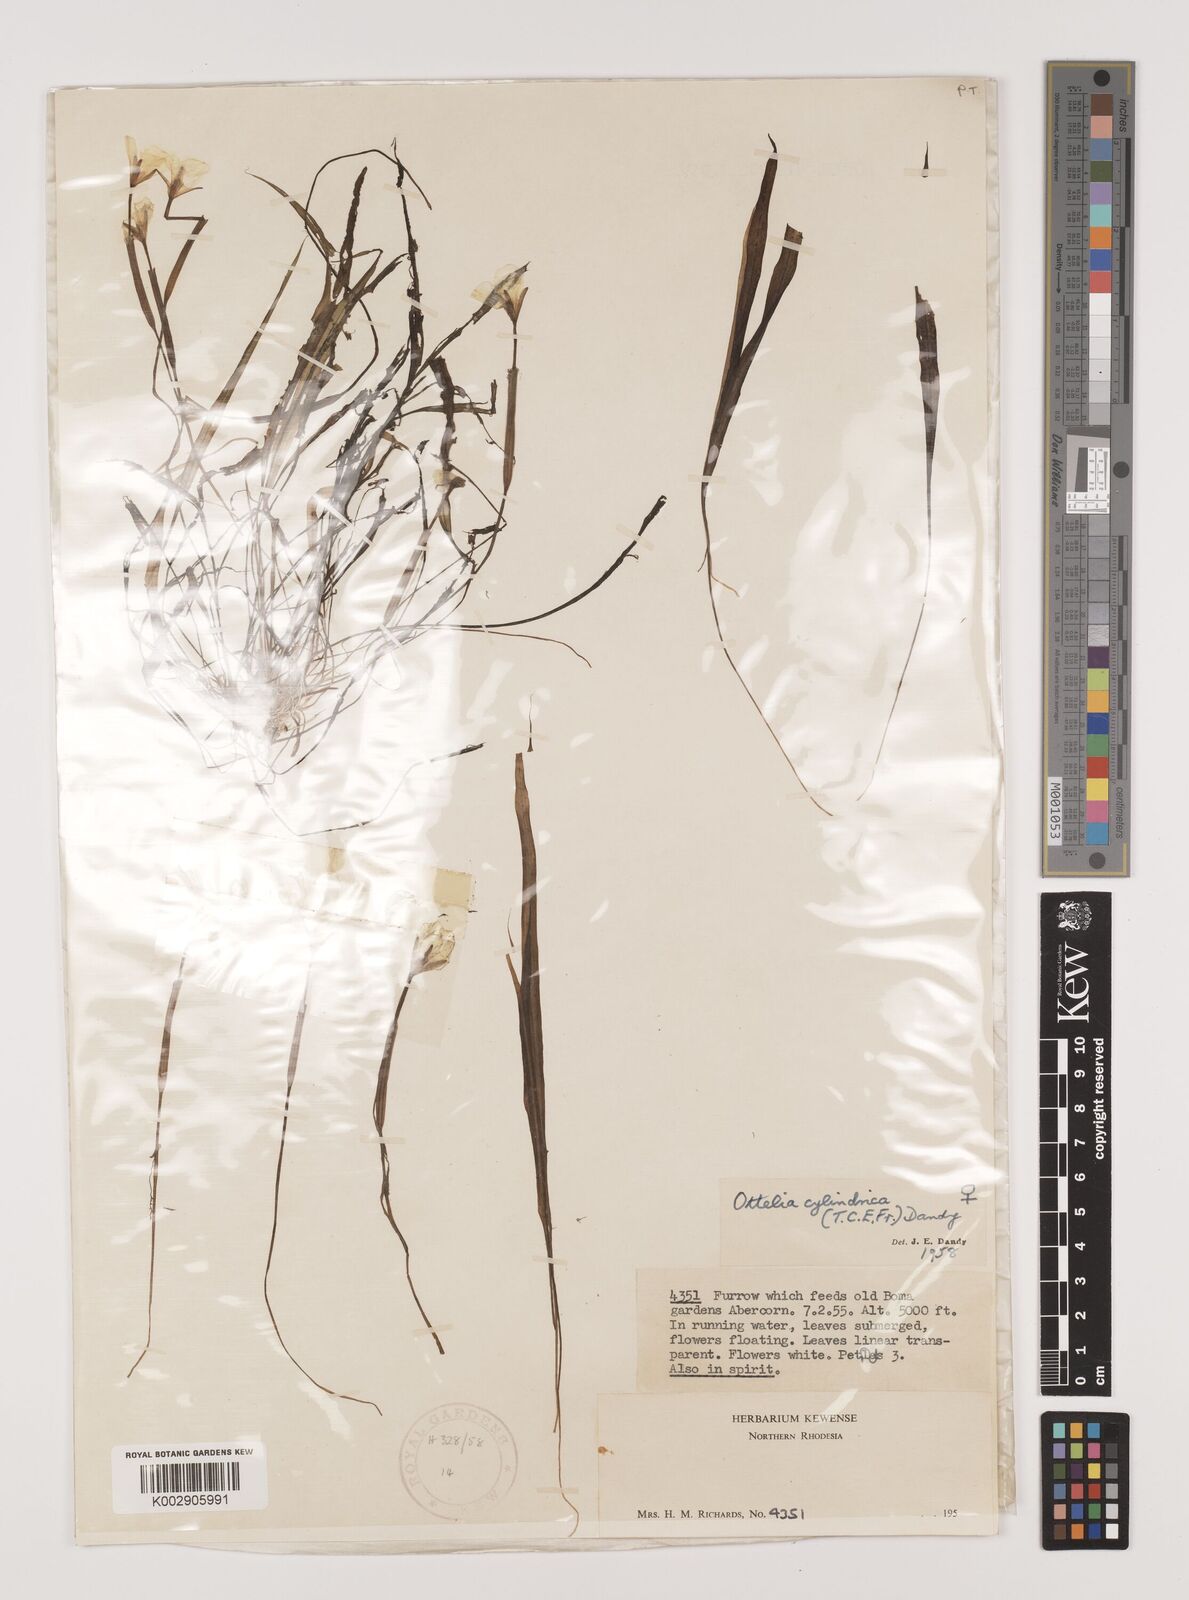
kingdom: Plantae
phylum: Tracheophyta
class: Liliopsida
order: Alismatales
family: Hydrocharitaceae
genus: Ottelia
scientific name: Ottelia cylindrica
